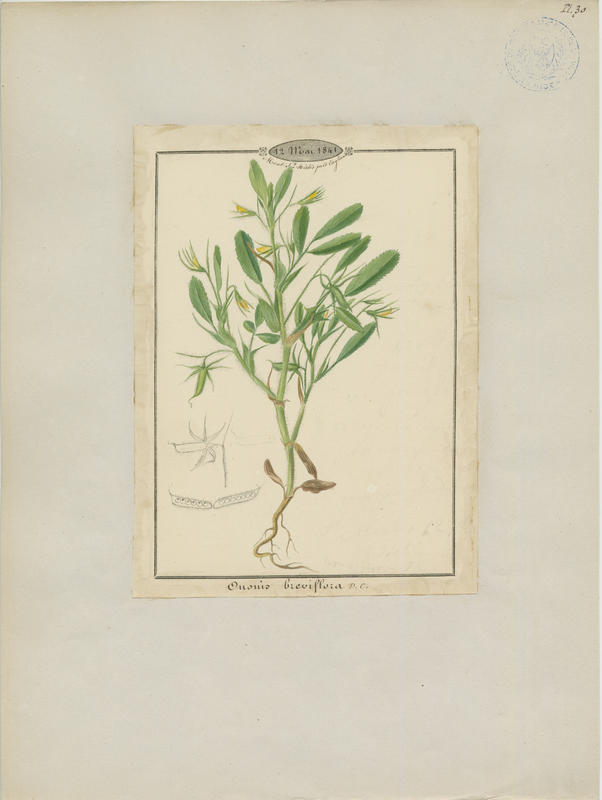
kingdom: Plantae
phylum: Tracheophyta
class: Magnoliopsida
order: Fabales
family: Fabaceae
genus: Ononis
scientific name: Ononis viscosa
